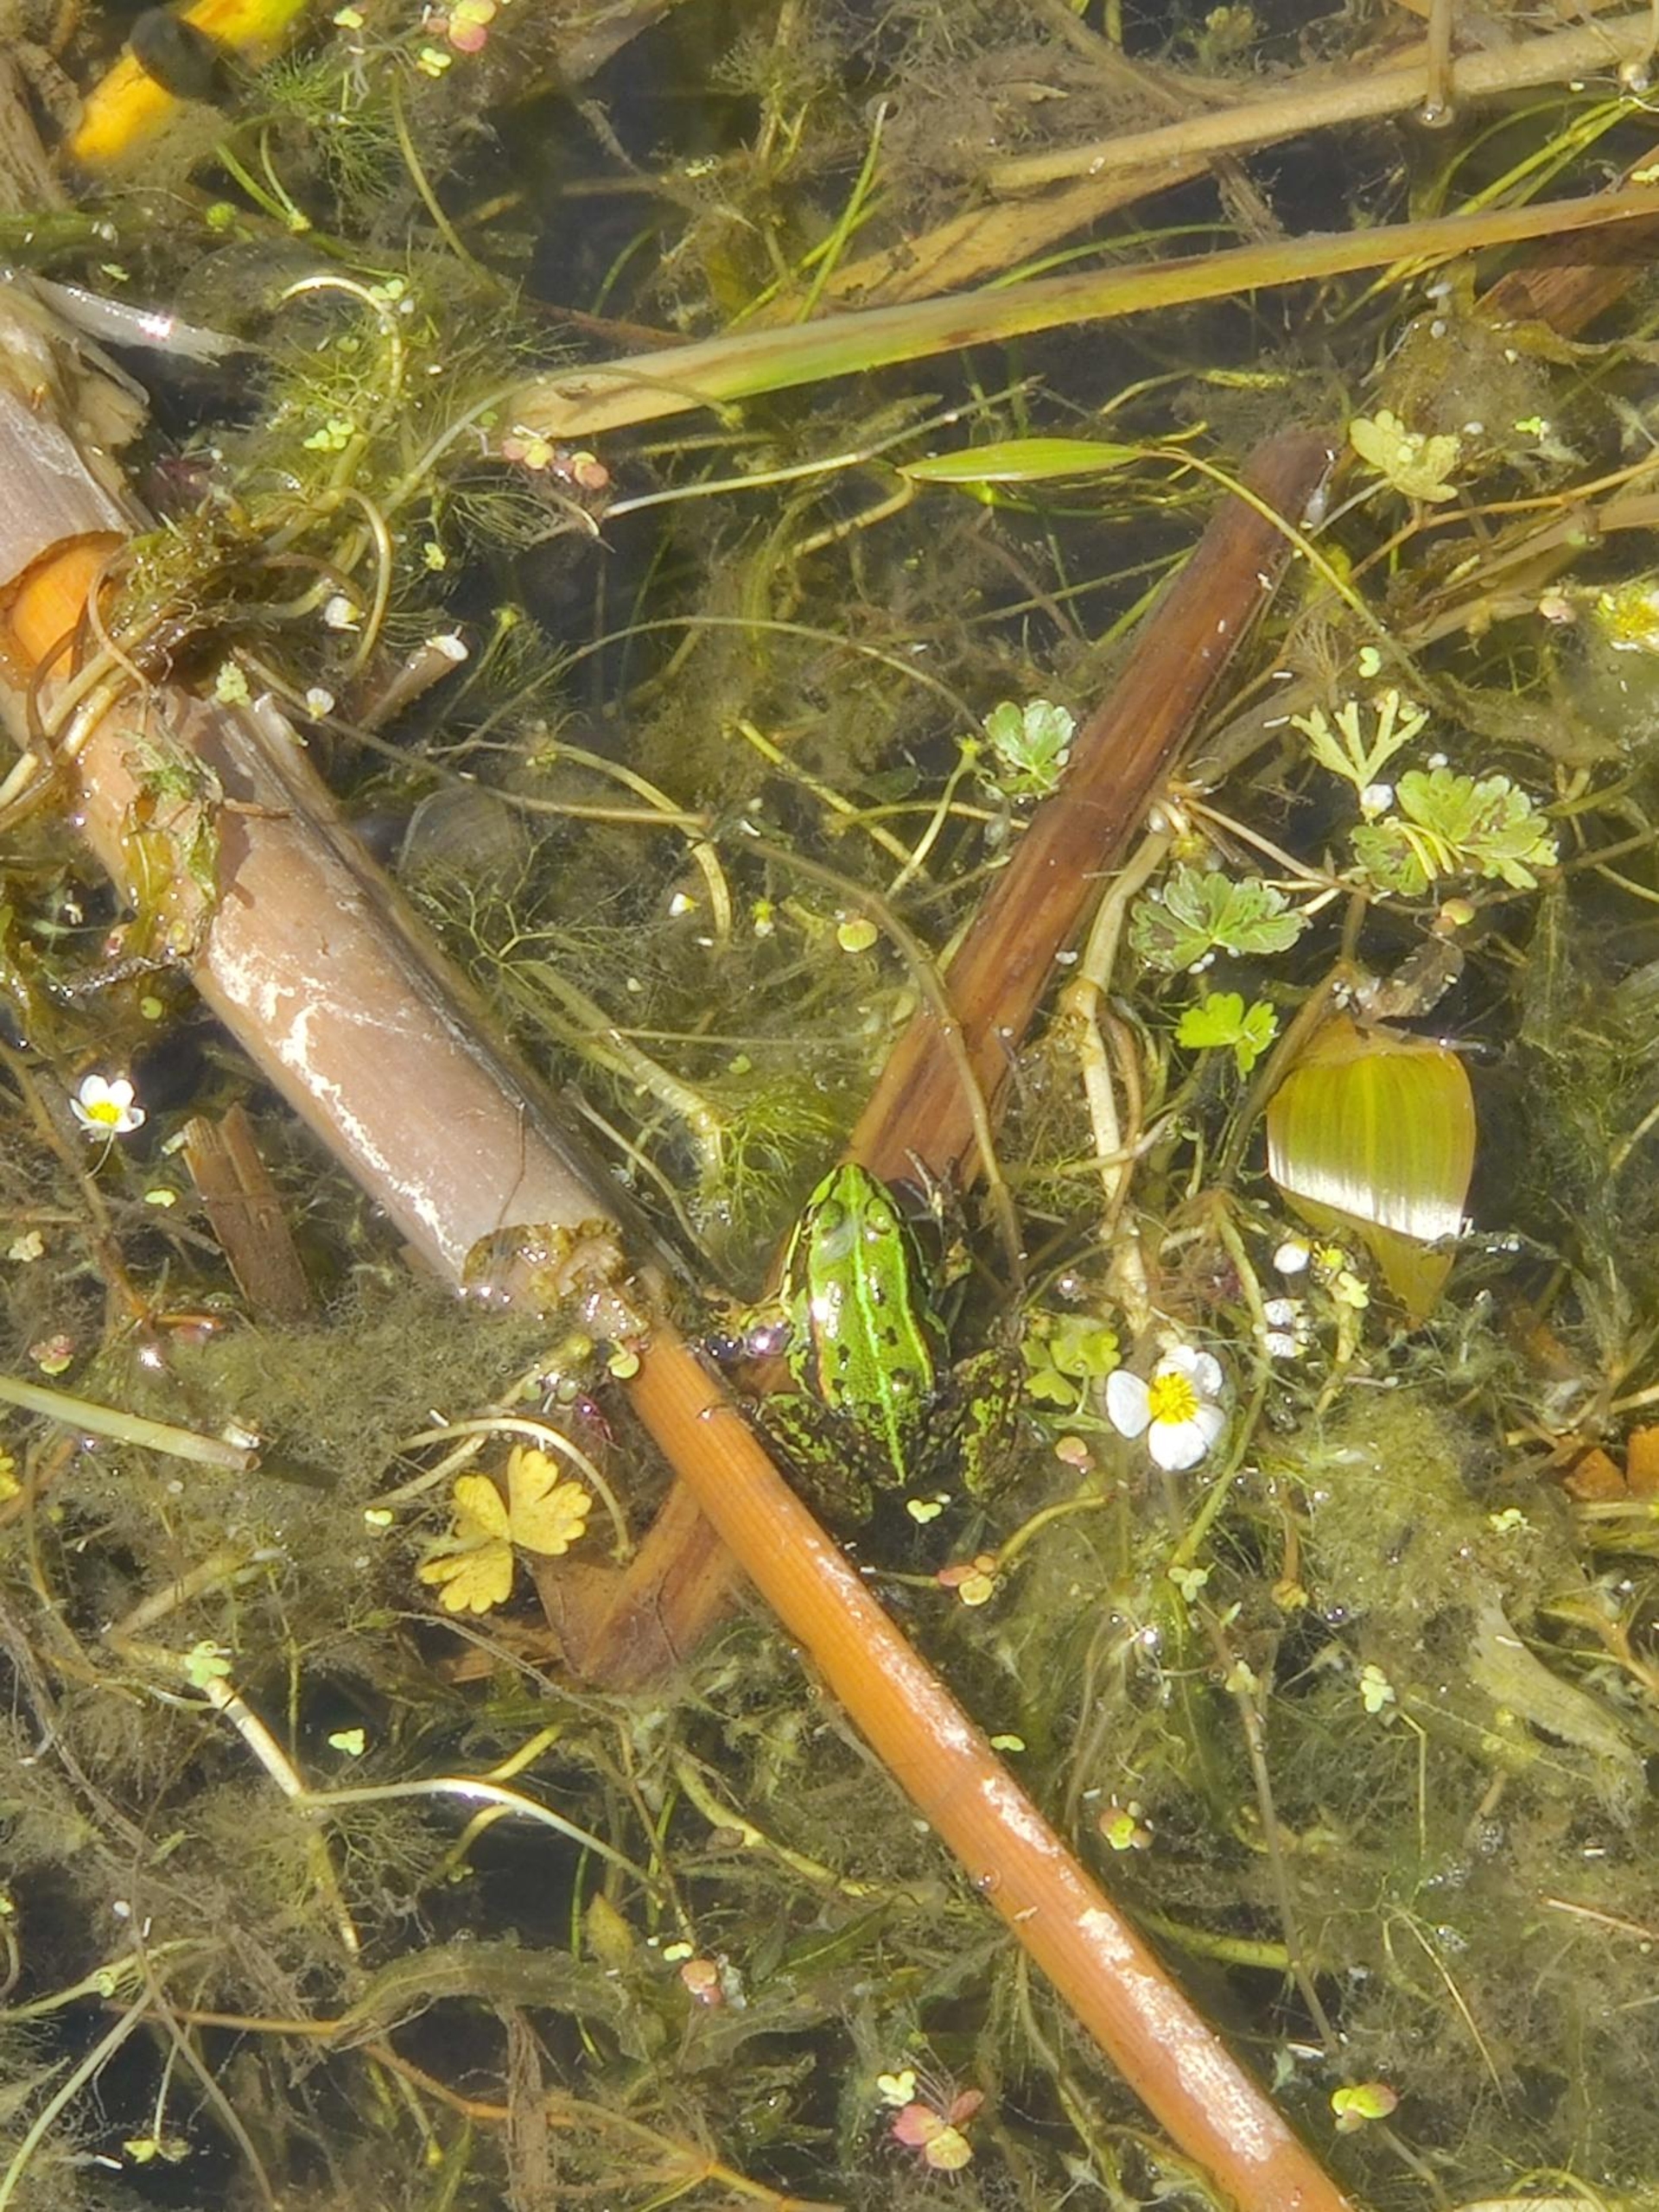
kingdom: Animalia
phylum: Chordata
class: Amphibia
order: Anura
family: Ranidae
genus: Pelophylax
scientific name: Pelophylax lessonae
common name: Grøn frø
